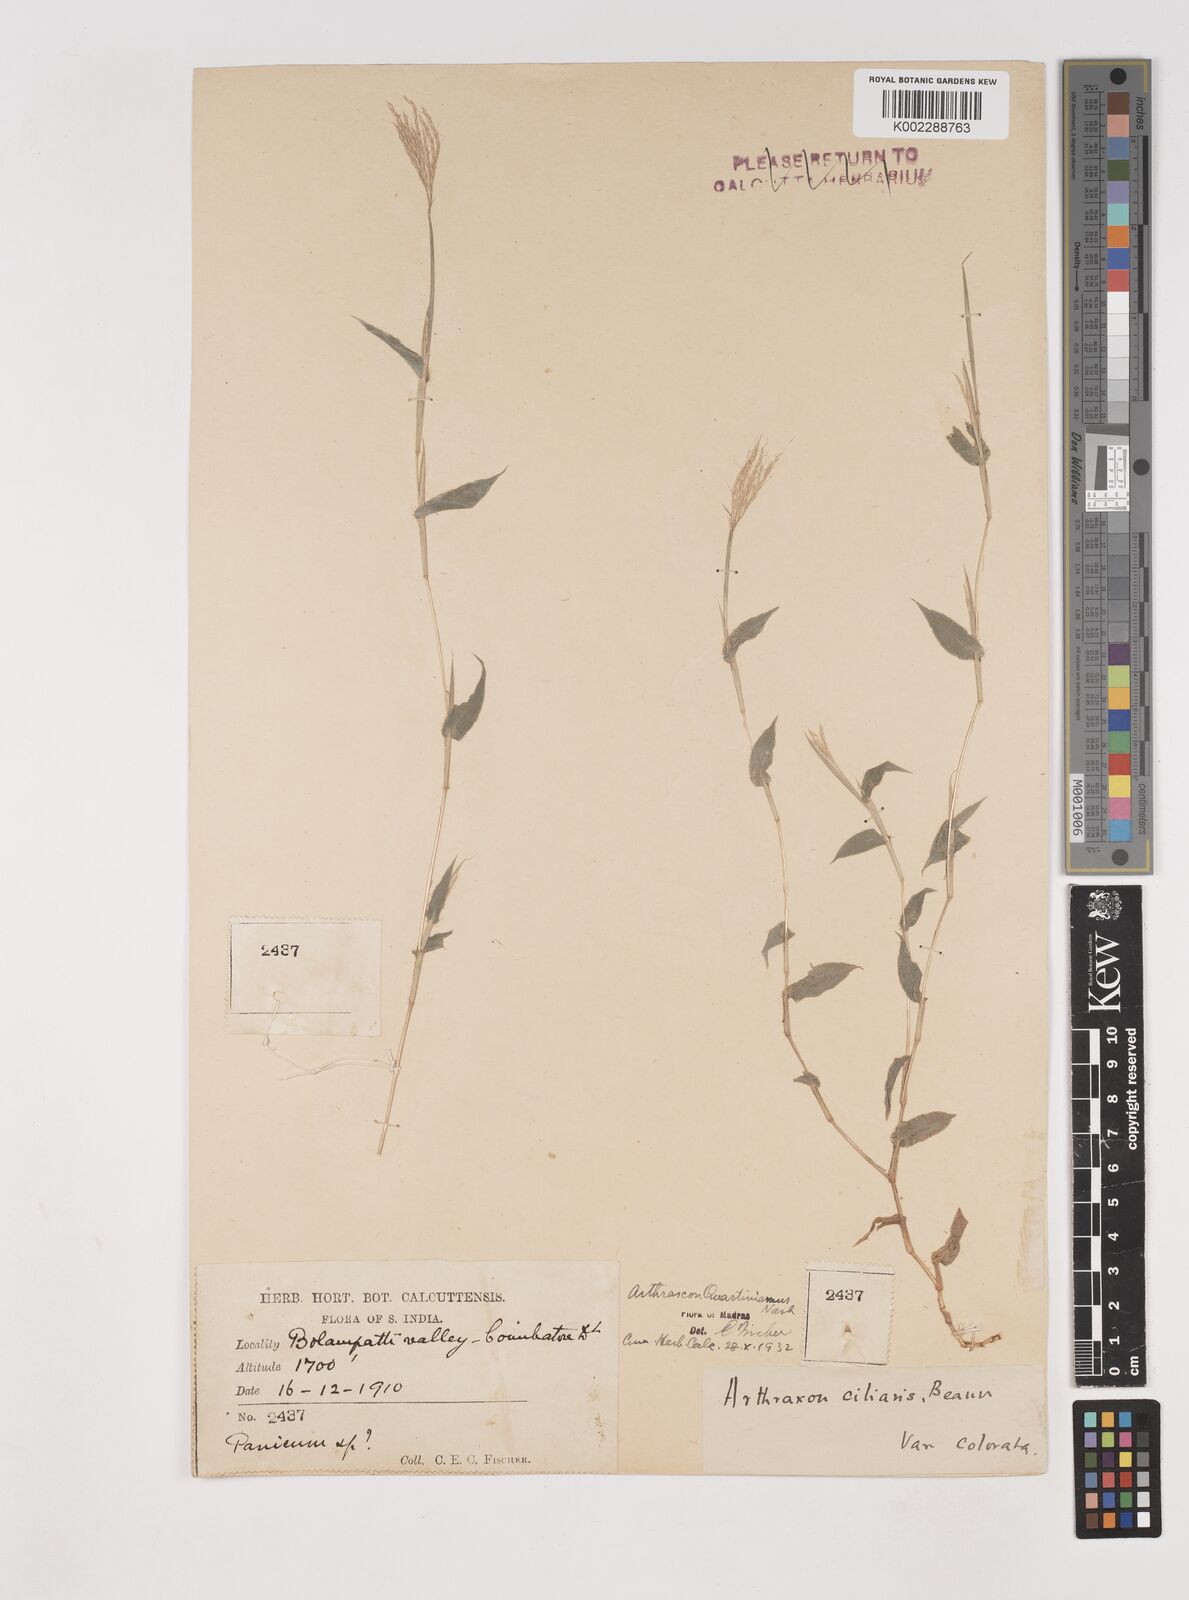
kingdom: Plantae
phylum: Tracheophyta
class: Liliopsida
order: Poales
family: Poaceae
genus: Arthraxon
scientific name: Arthraxon hispidus
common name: Small carpgrass
